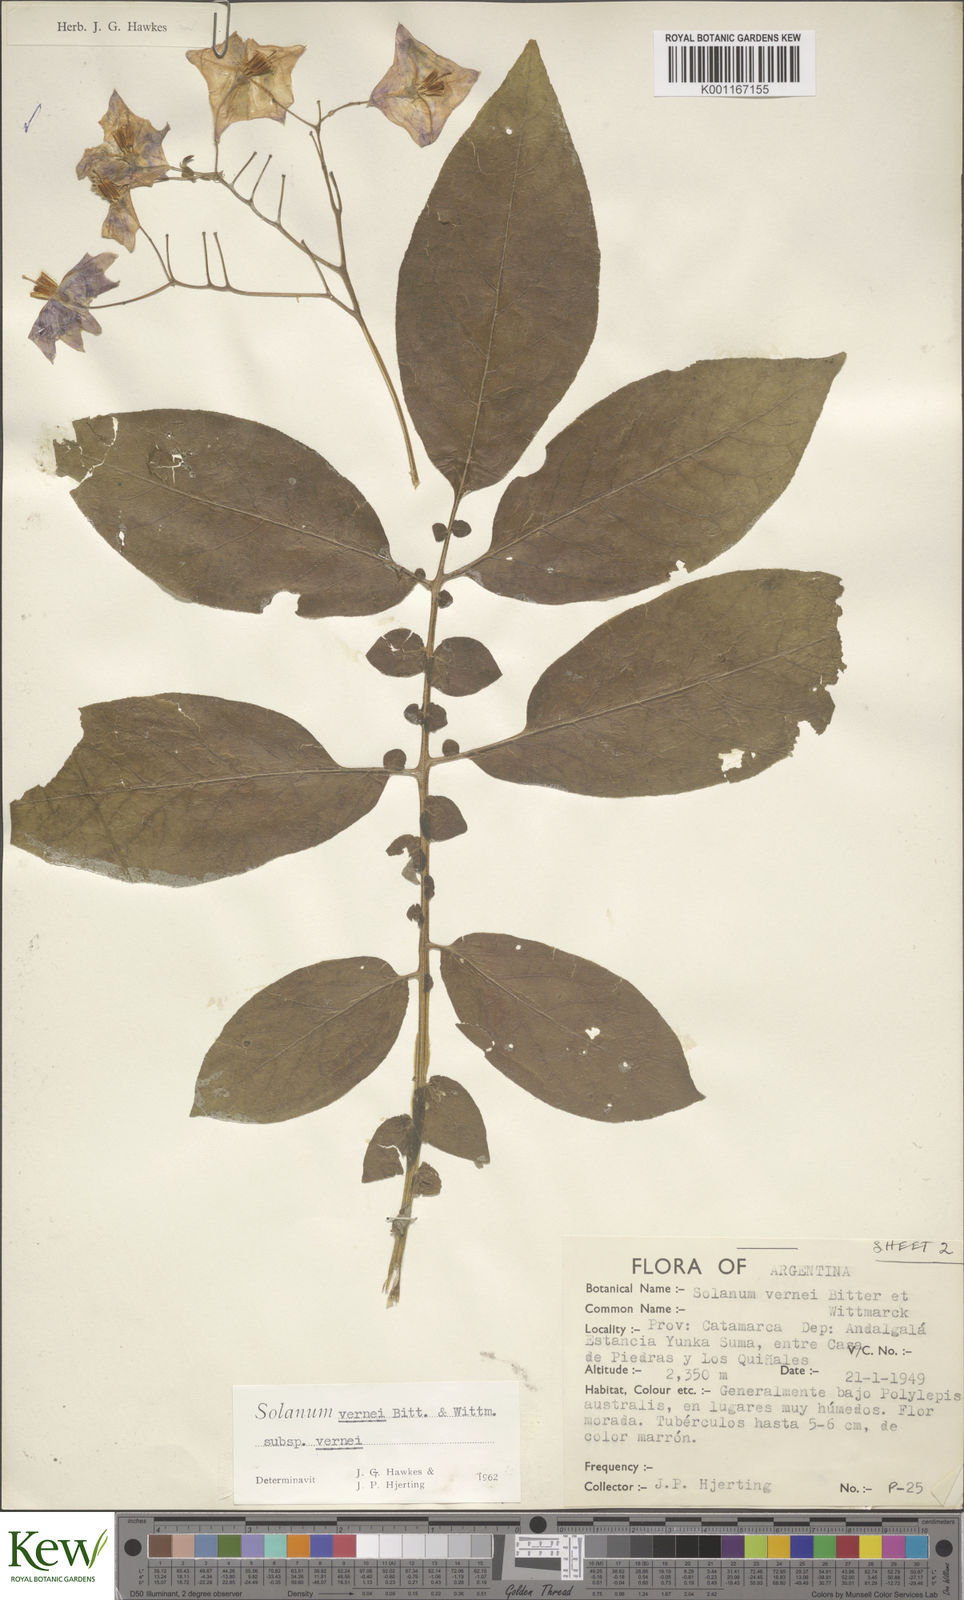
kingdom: Plantae
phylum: Tracheophyta
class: Magnoliopsida
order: Solanales
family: Solanaceae
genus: Solanum
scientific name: Solanum vernei
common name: Purple potato
